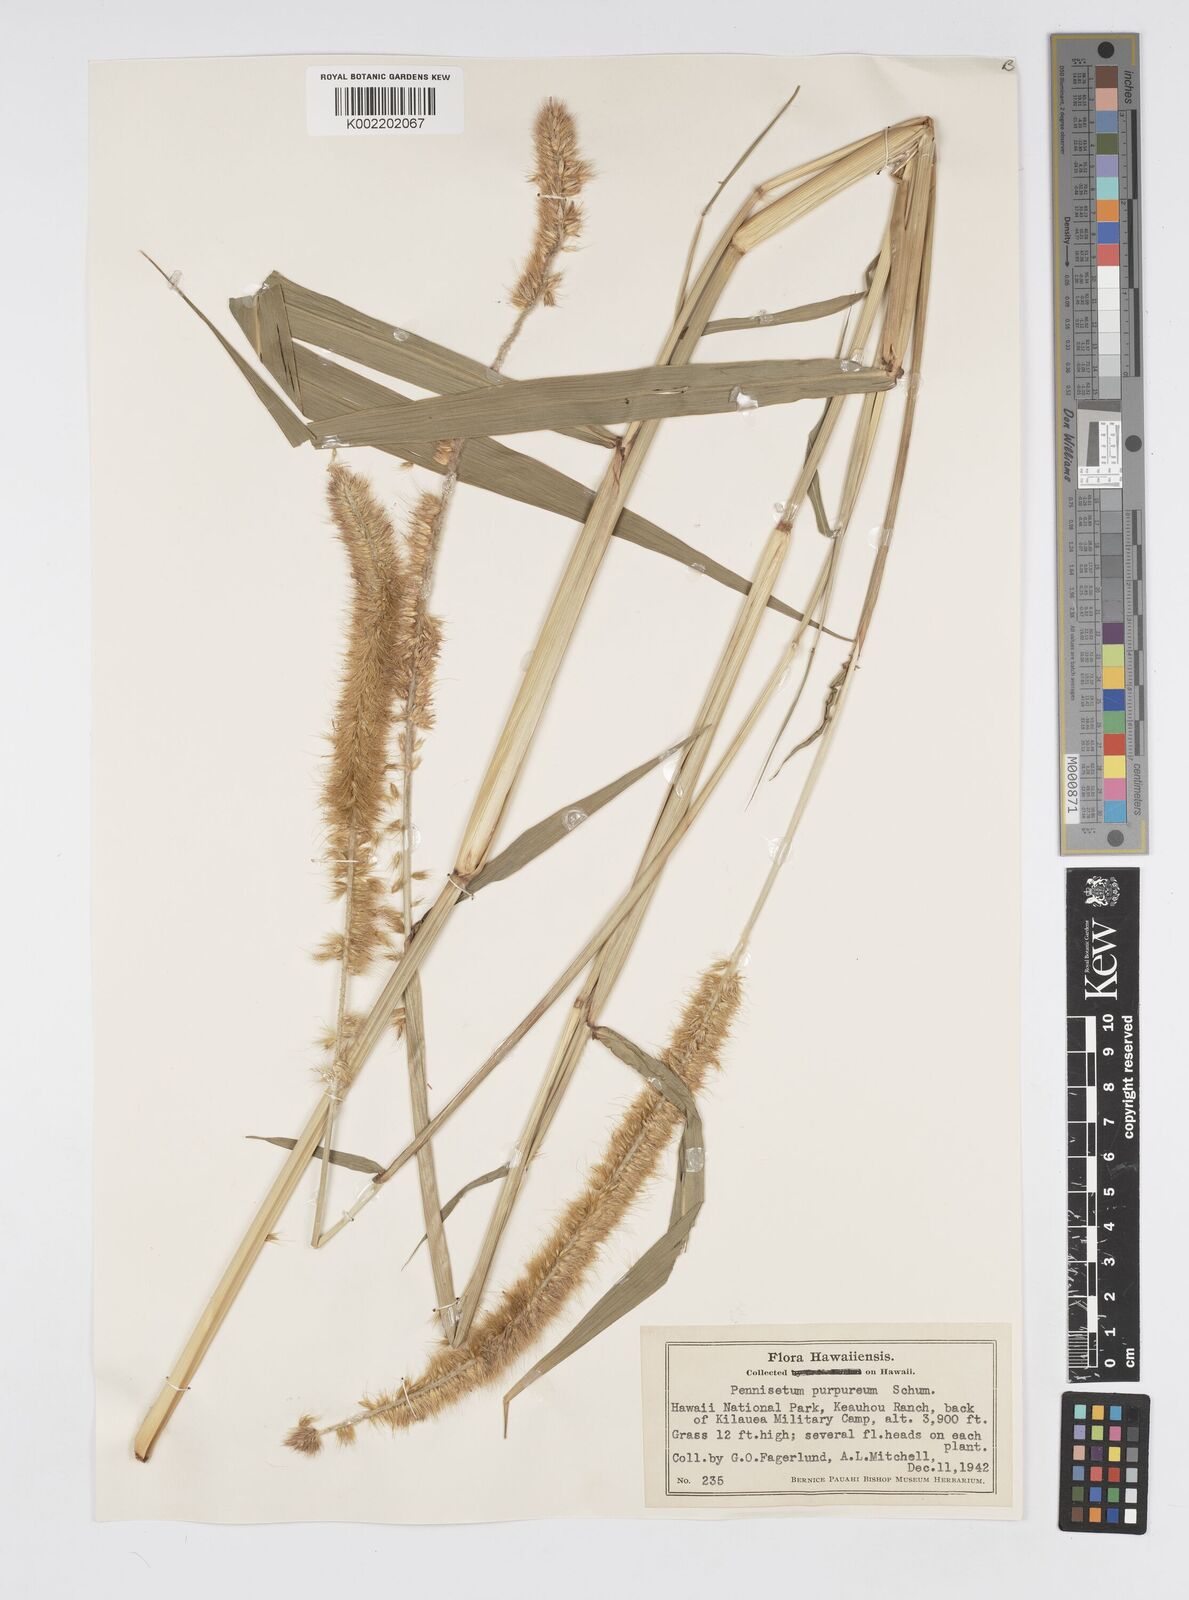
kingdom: Plantae
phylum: Tracheophyta
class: Liliopsida
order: Poales
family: Poaceae
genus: Cenchrus
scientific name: Cenchrus purpureus
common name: Elephant grass
